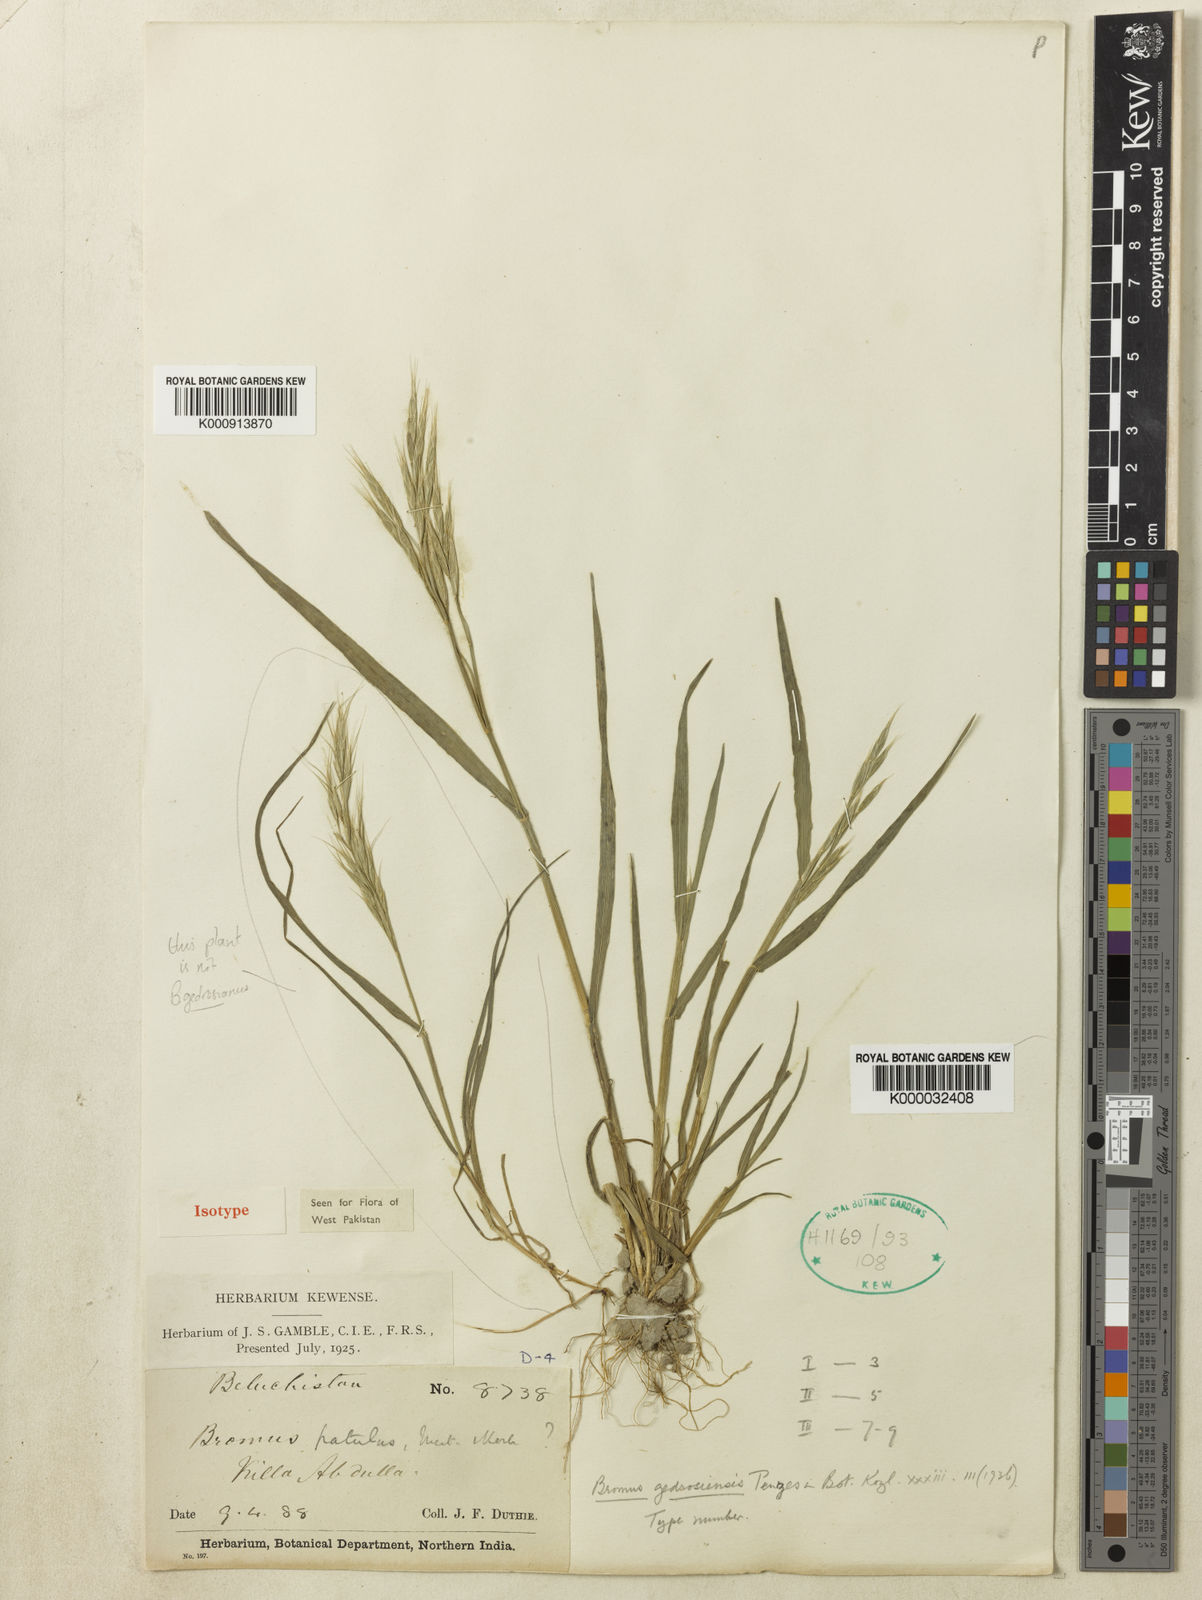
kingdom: Plantae
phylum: Tracheophyta
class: Liliopsida
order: Poales
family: Poaceae
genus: Bromus
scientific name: Bromus pectinatus
